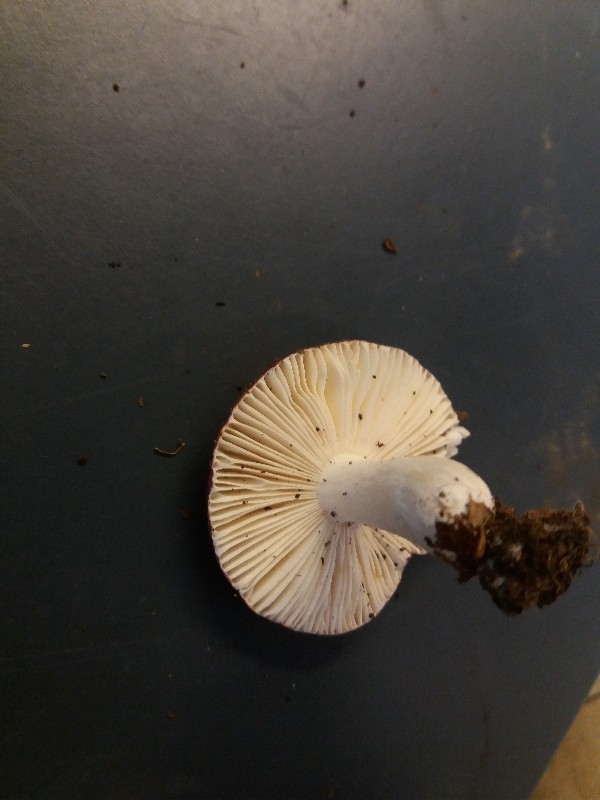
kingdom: Fungi
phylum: Basidiomycota
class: Agaricomycetes
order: Russulales
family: Russulaceae
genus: Russula
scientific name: Russula atropurpurea
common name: purpurbroget skørhat
